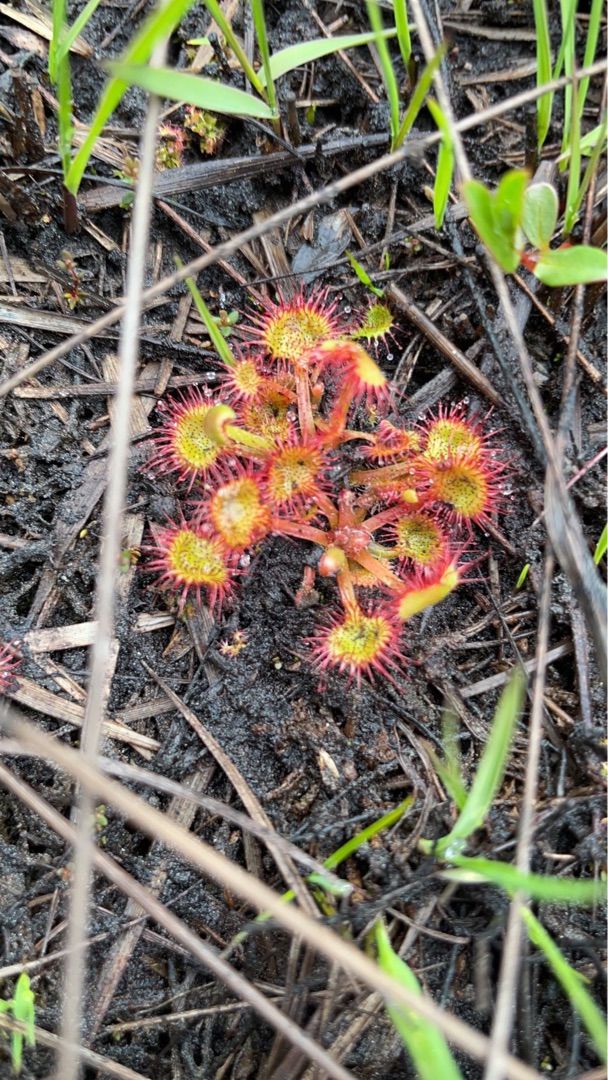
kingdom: Plantae
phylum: Tracheophyta
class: Magnoliopsida
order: Caryophyllales
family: Droseraceae
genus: Drosera
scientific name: Drosera rotundifolia
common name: Rundbladet soldug
